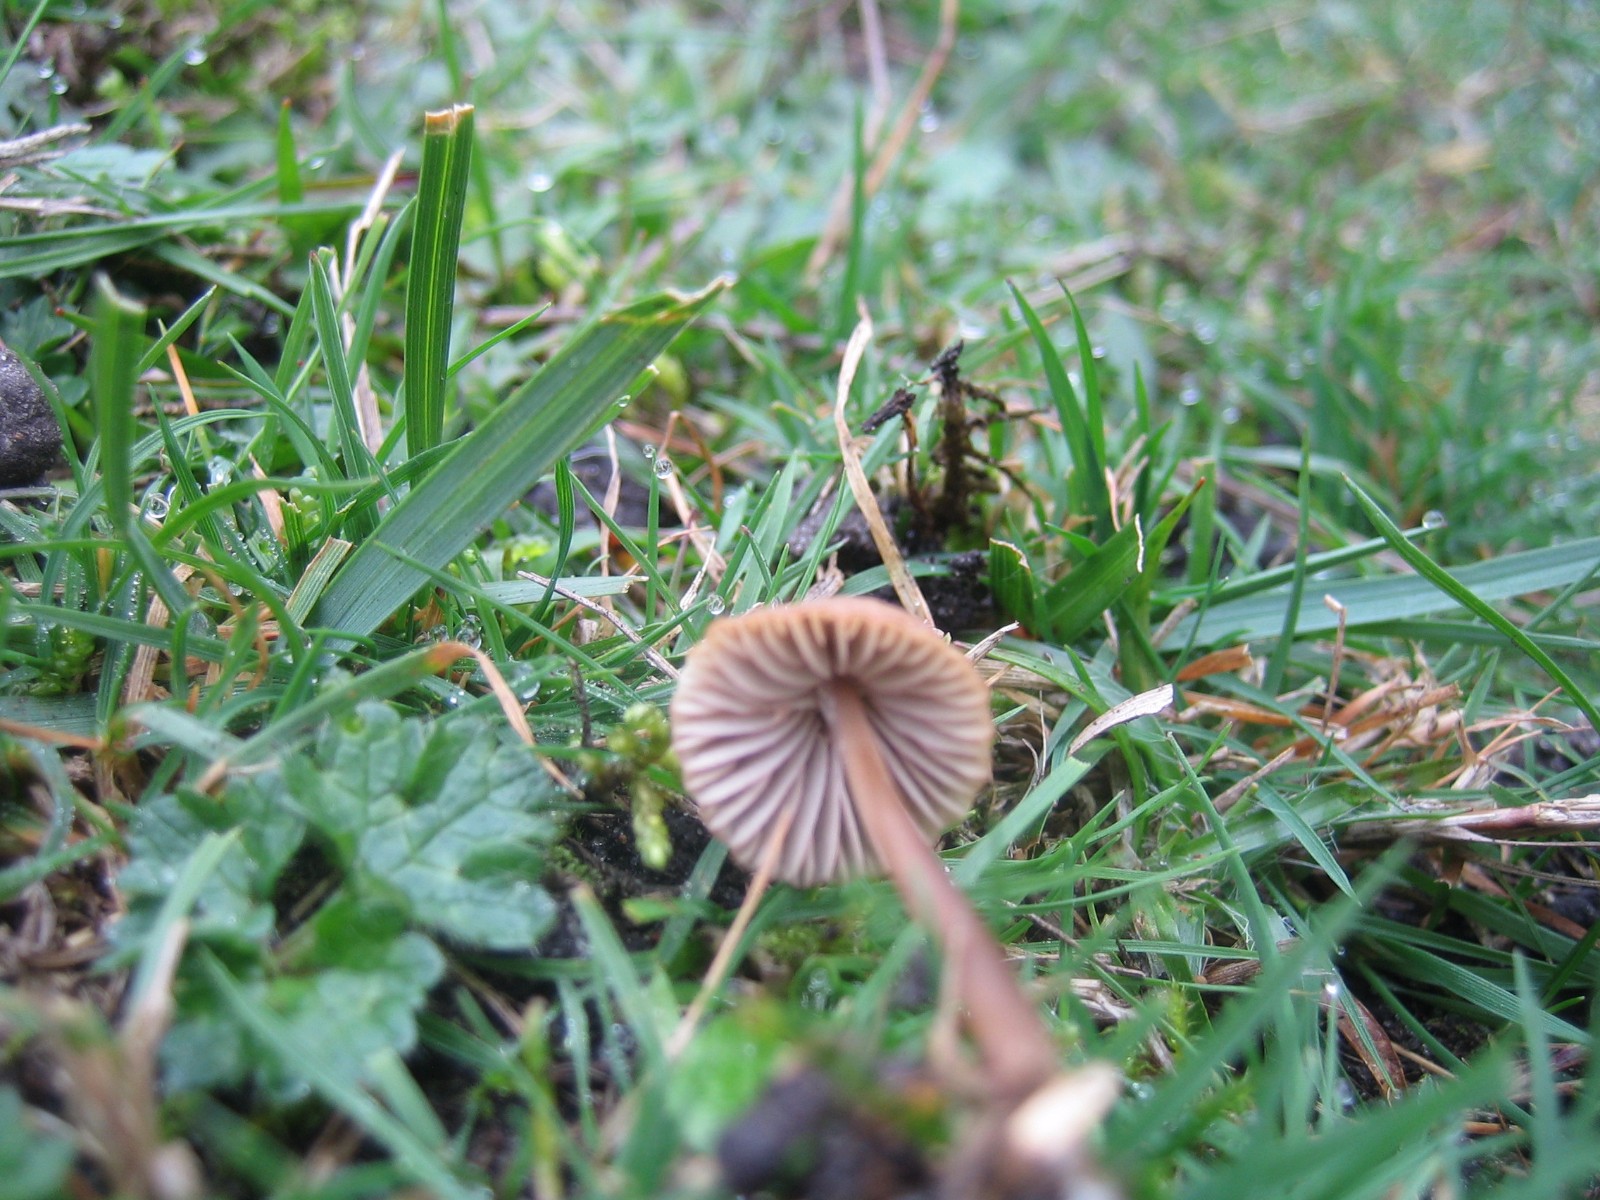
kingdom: Fungi
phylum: Basidiomycota
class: Agaricomycetes
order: Agaricales
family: Mycenaceae
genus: Mycena
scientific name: Mycena olivaceomarginata
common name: brunægget huesvamp
